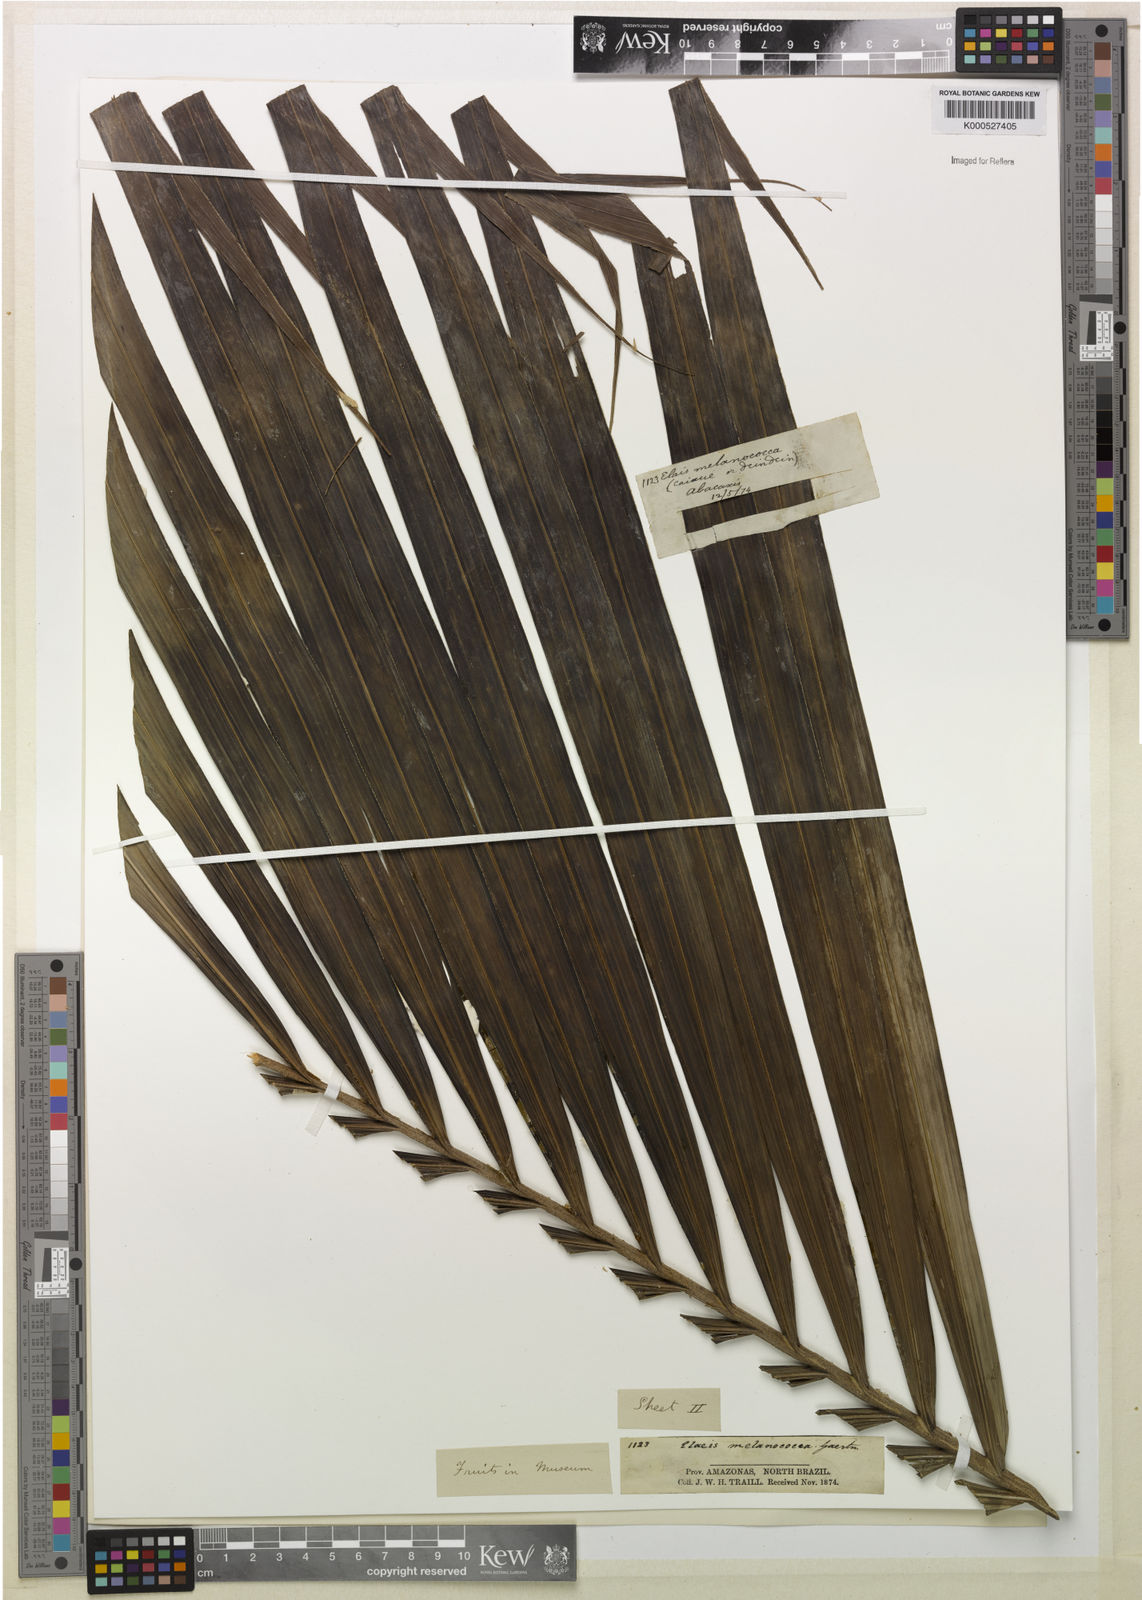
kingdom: Plantae
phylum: Tracheophyta
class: Liliopsida
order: Arecales
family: Arecaceae
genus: Elaeis
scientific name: Elaeis oleifera
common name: American oil palm
